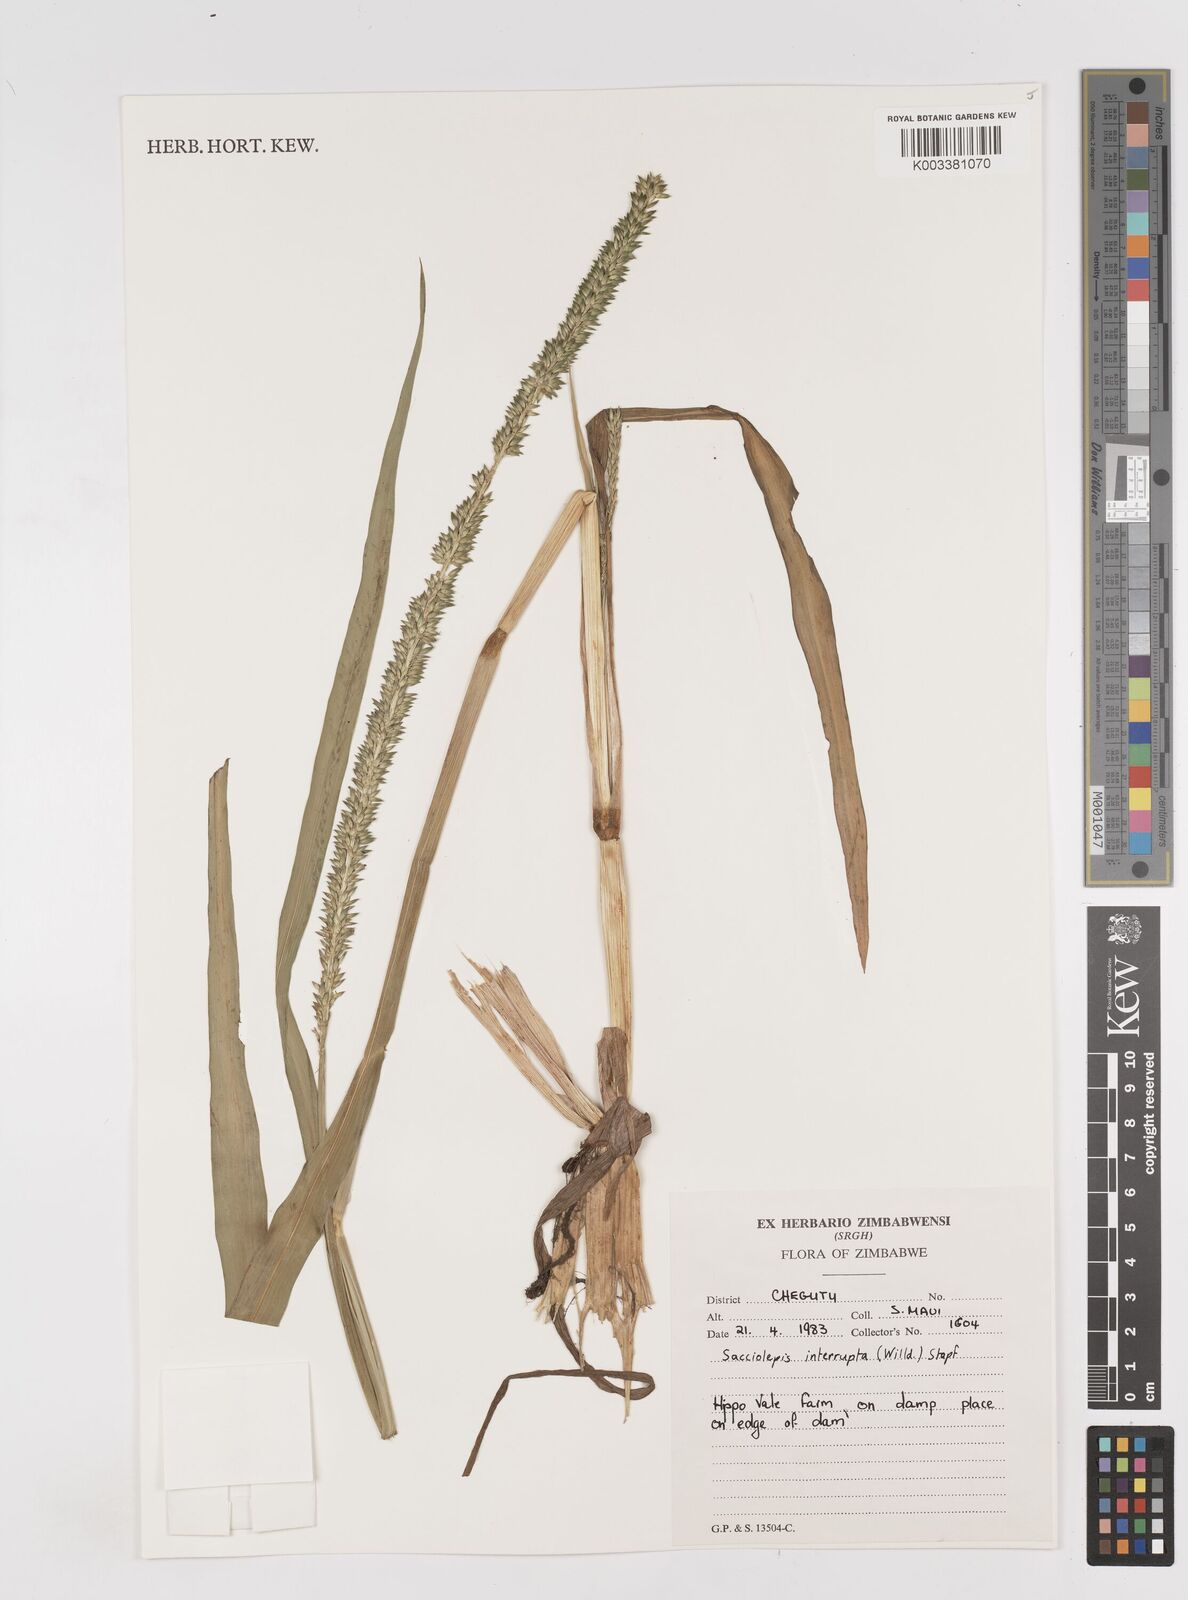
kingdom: Plantae
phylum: Tracheophyta
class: Liliopsida
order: Poales
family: Poaceae
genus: Sacciolepis
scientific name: Sacciolepis interrupta
